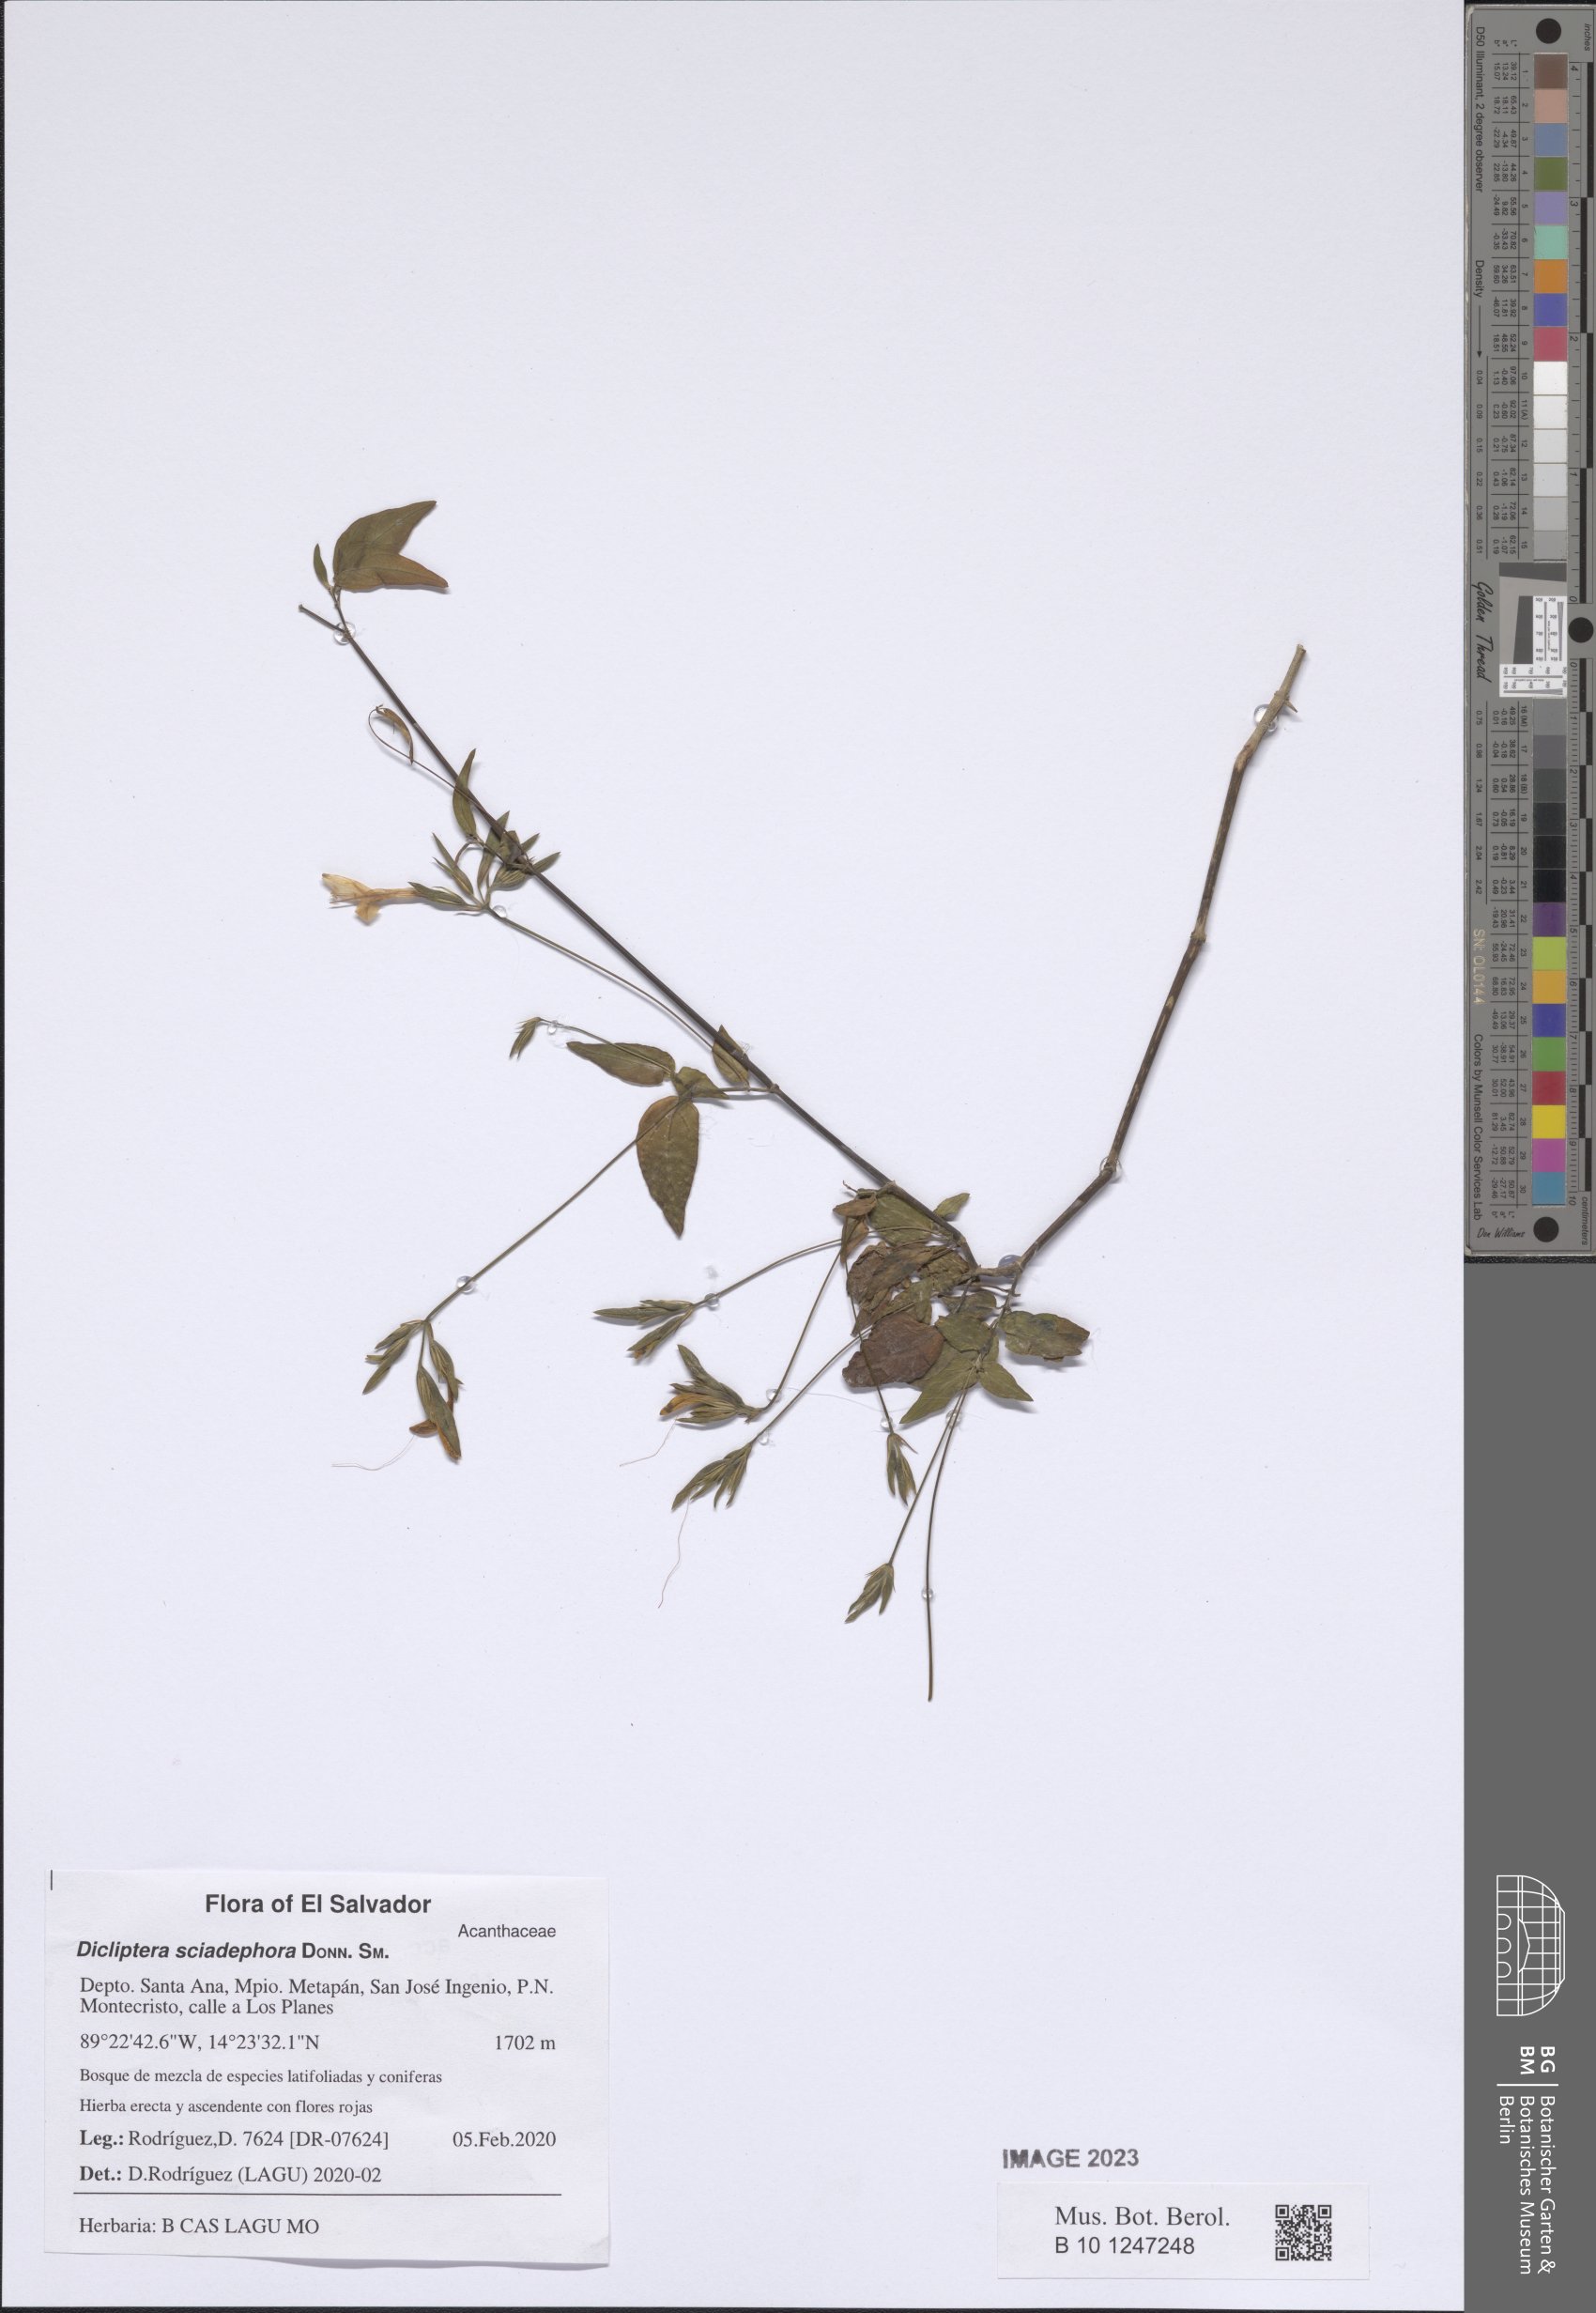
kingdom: Plantae
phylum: Tracheophyta
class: Magnoliopsida
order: Lamiales
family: Acanthaceae
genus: Dicliptera
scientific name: Dicliptera sciadephora
